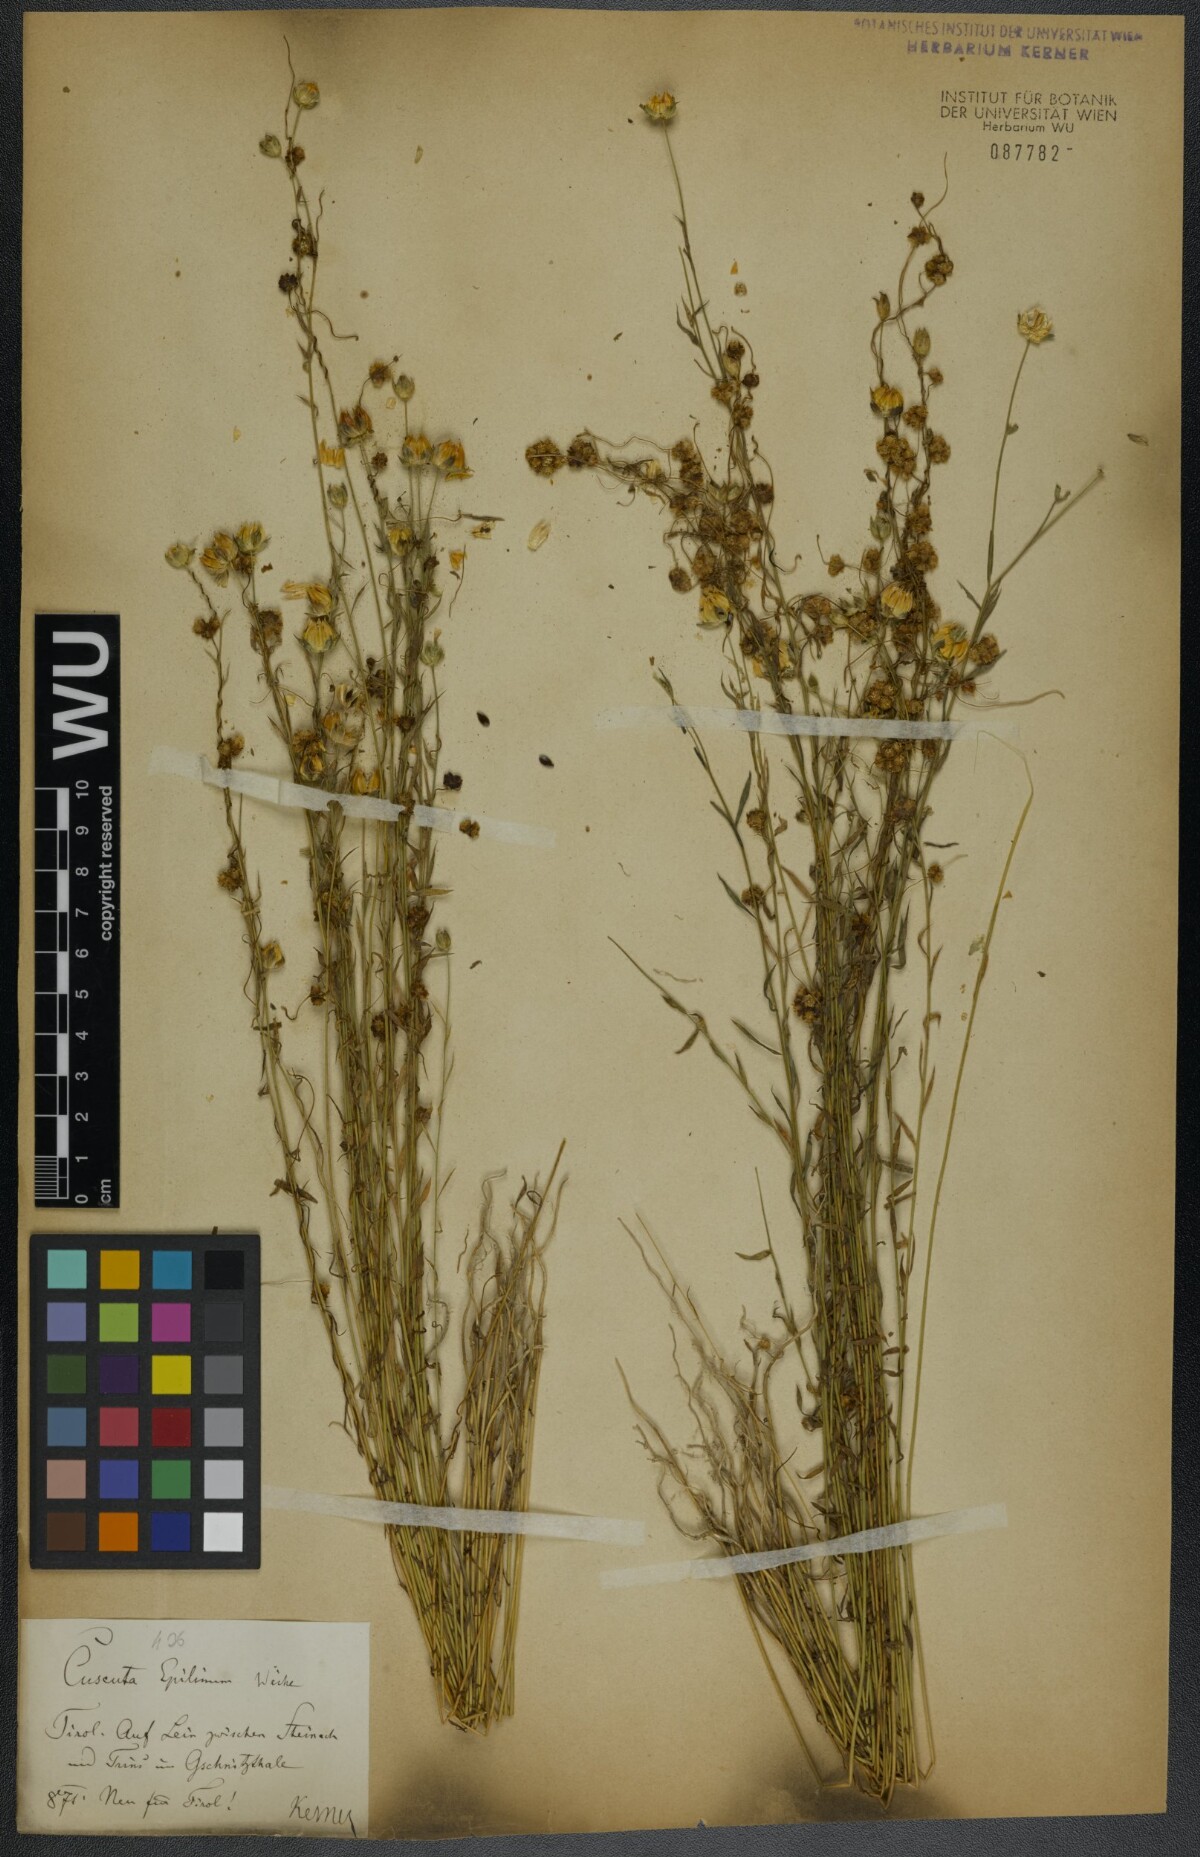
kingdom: Plantae
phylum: Tracheophyta
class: Magnoliopsida
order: Solanales
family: Convolvulaceae
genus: Cuscuta
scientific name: Cuscuta epilinum
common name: Flax dodder
